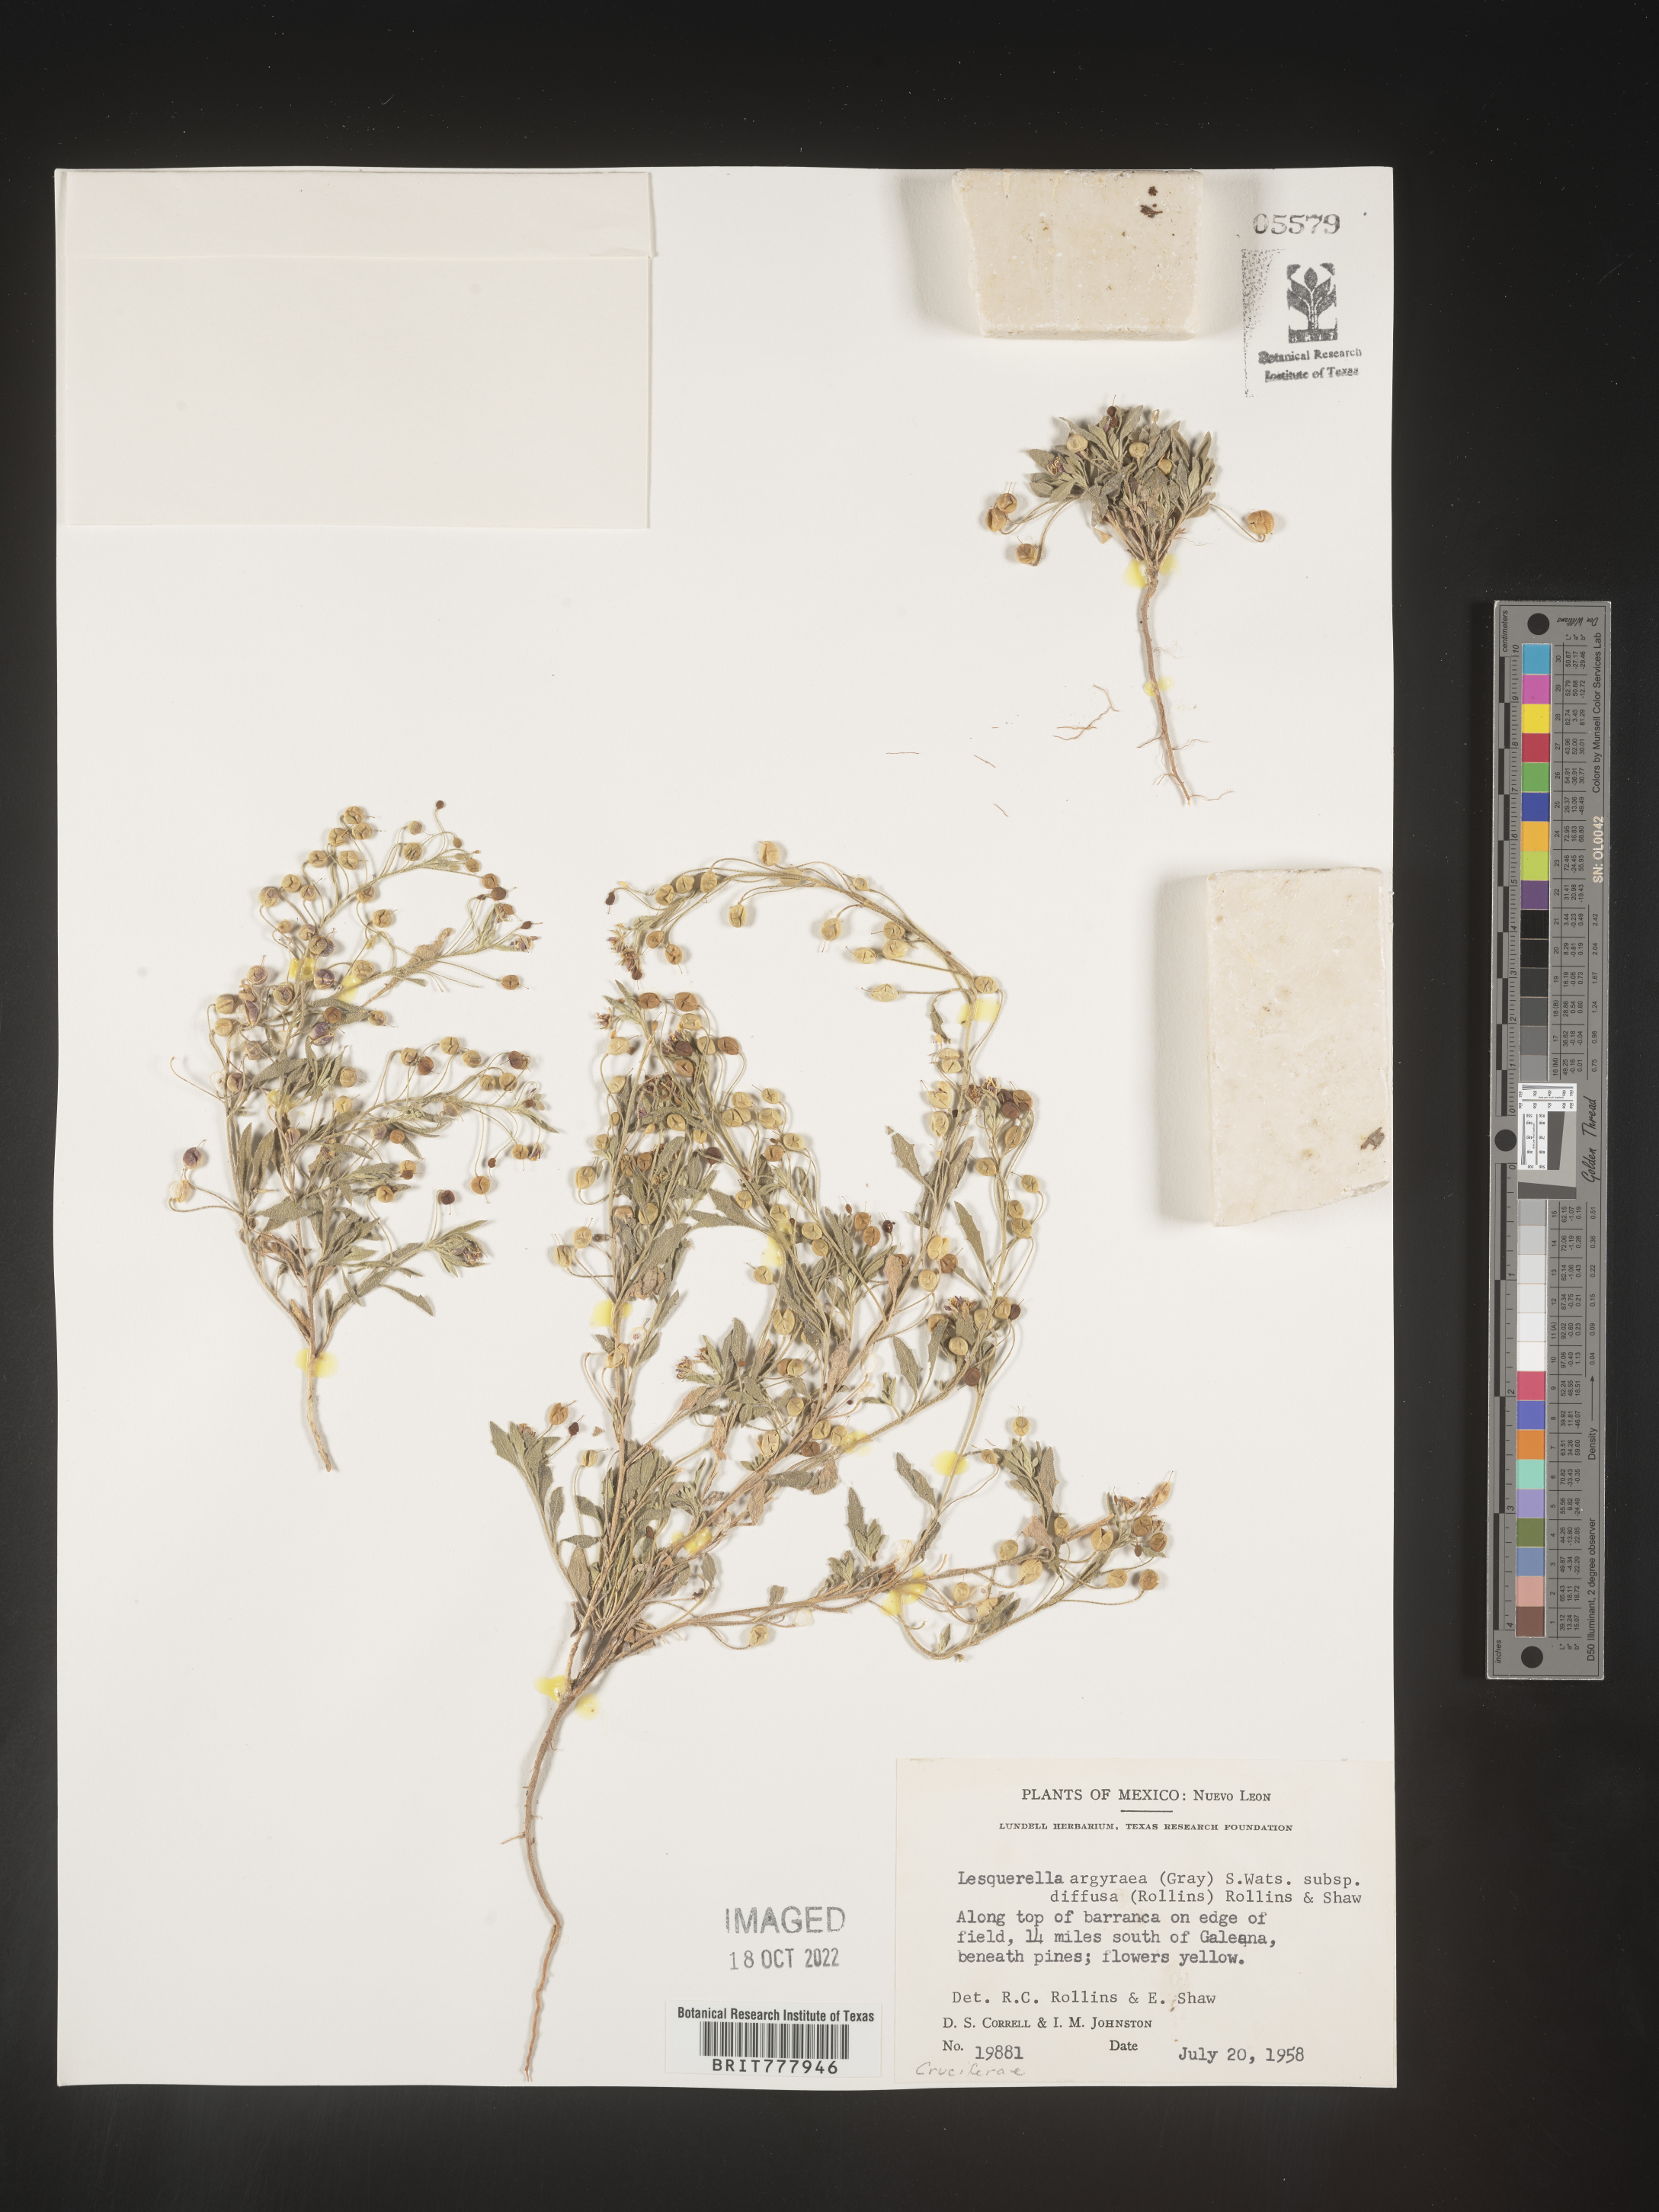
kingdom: Chromista
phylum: Cercozoa
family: Psammonobiotidae
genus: Lesquerella
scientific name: Lesquerella
